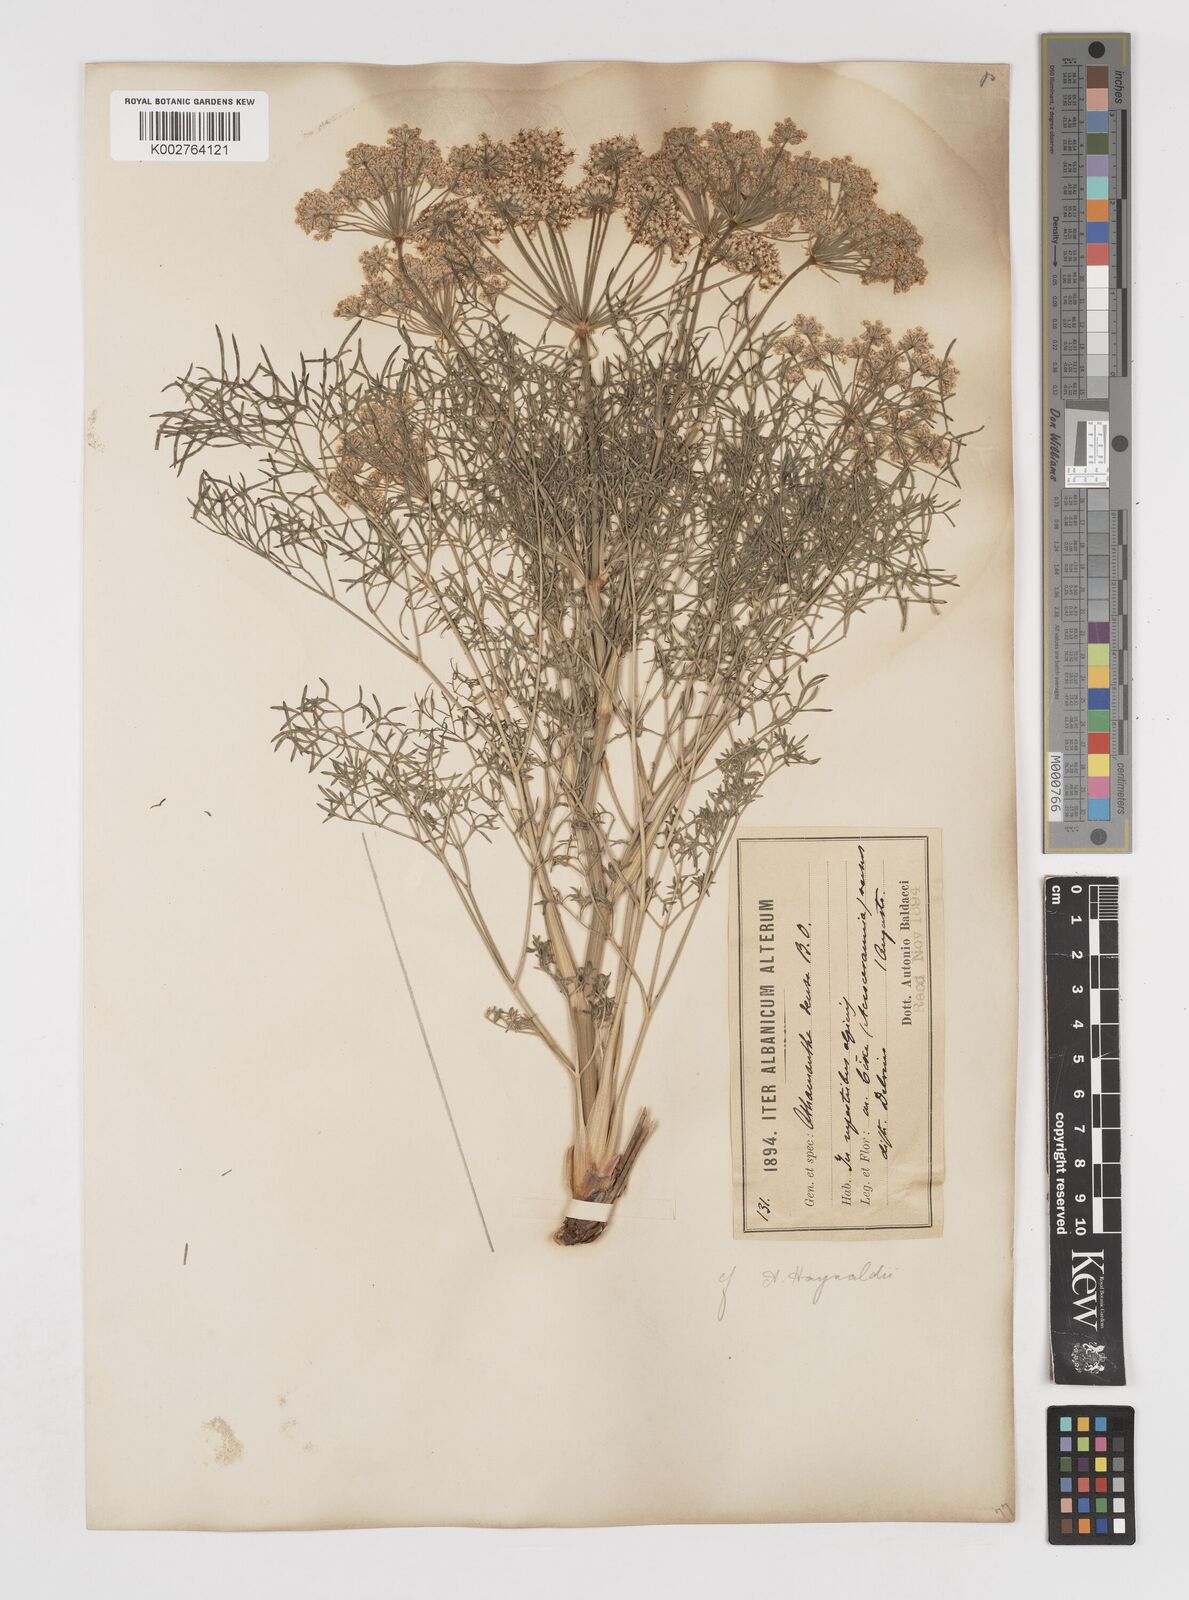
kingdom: Plantae
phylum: Tracheophyta
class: Magnoliopsida
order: Apiales
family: Apiaceae
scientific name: Apiaceae
